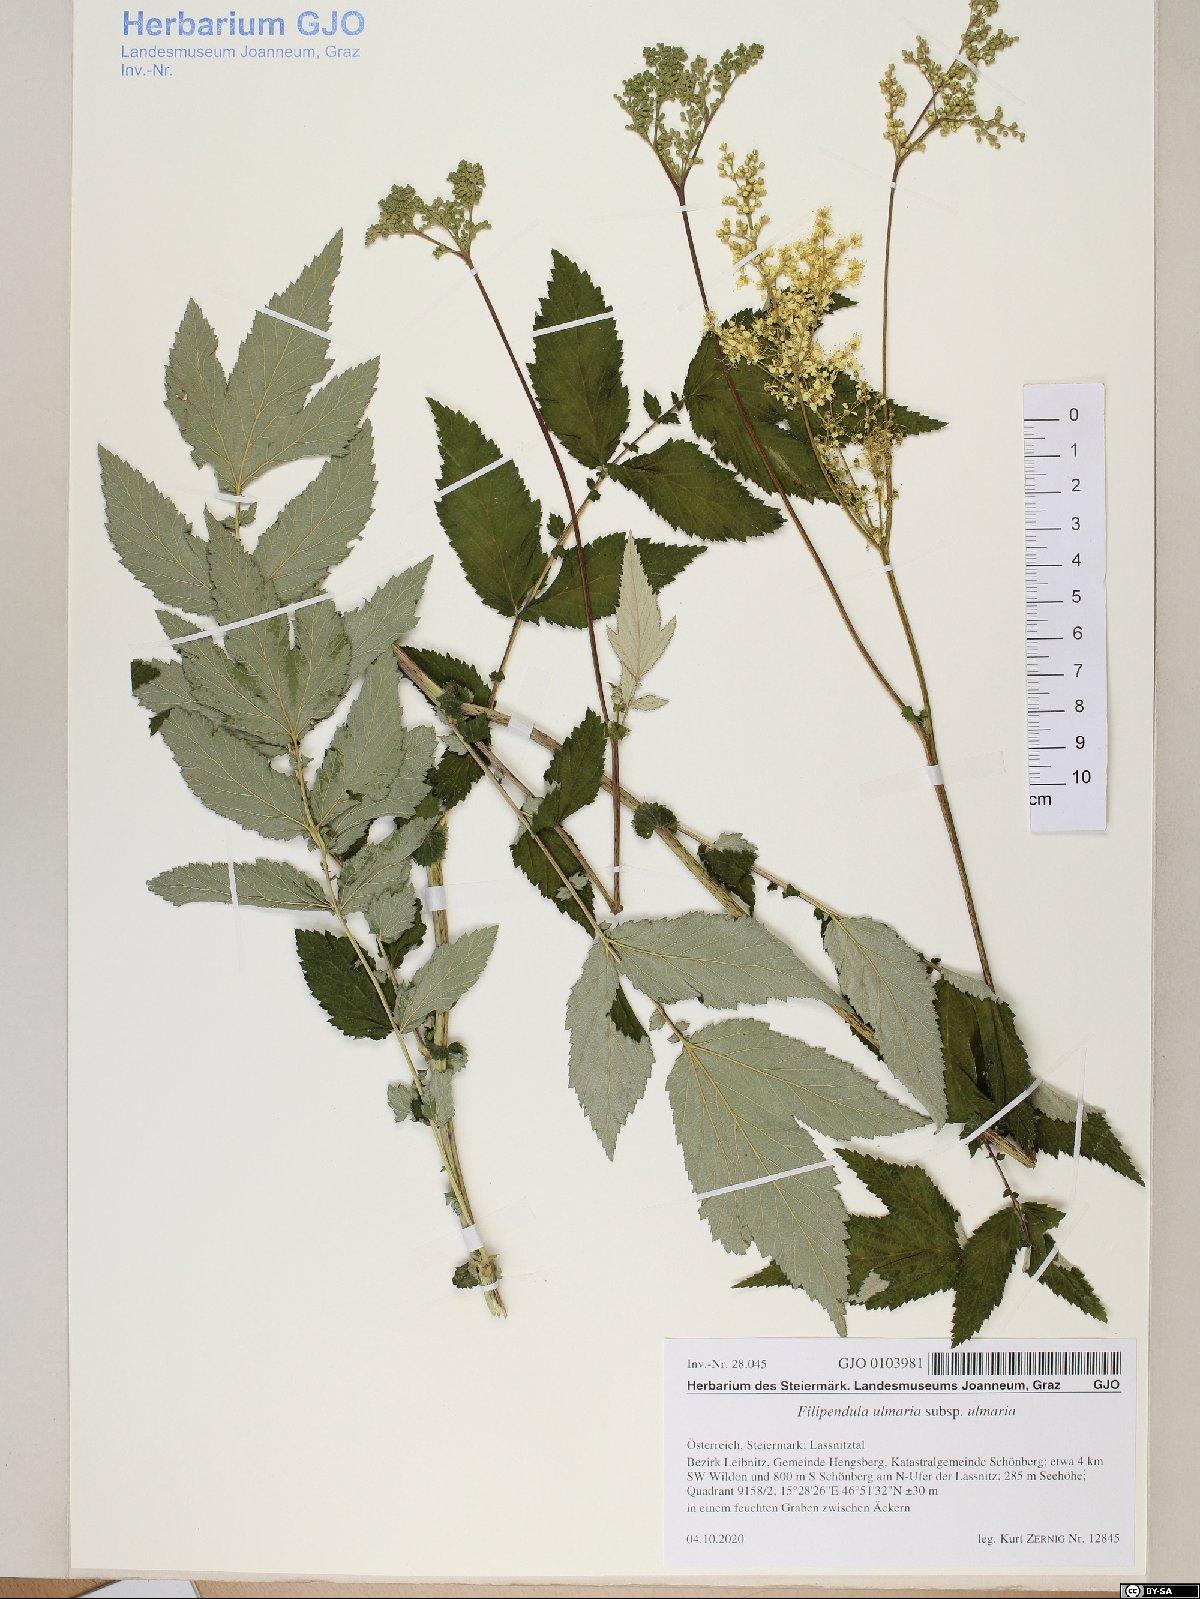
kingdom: Plantae
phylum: Tracheophyta
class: Magnoliopsida
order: Rosales
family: Rosaceae
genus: Filipendula
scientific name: Filipendula ulmaria
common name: Meadowsweet
